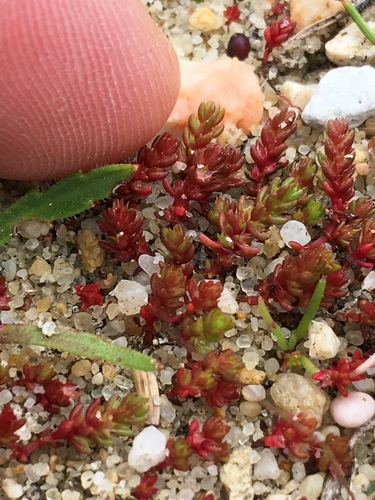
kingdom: Plantae
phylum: Tracheophyta
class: Magnoliopsida
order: Saxifragales
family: Crassulaceae
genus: Crassula
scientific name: Crassula tillaea
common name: Mossy stonecrop
